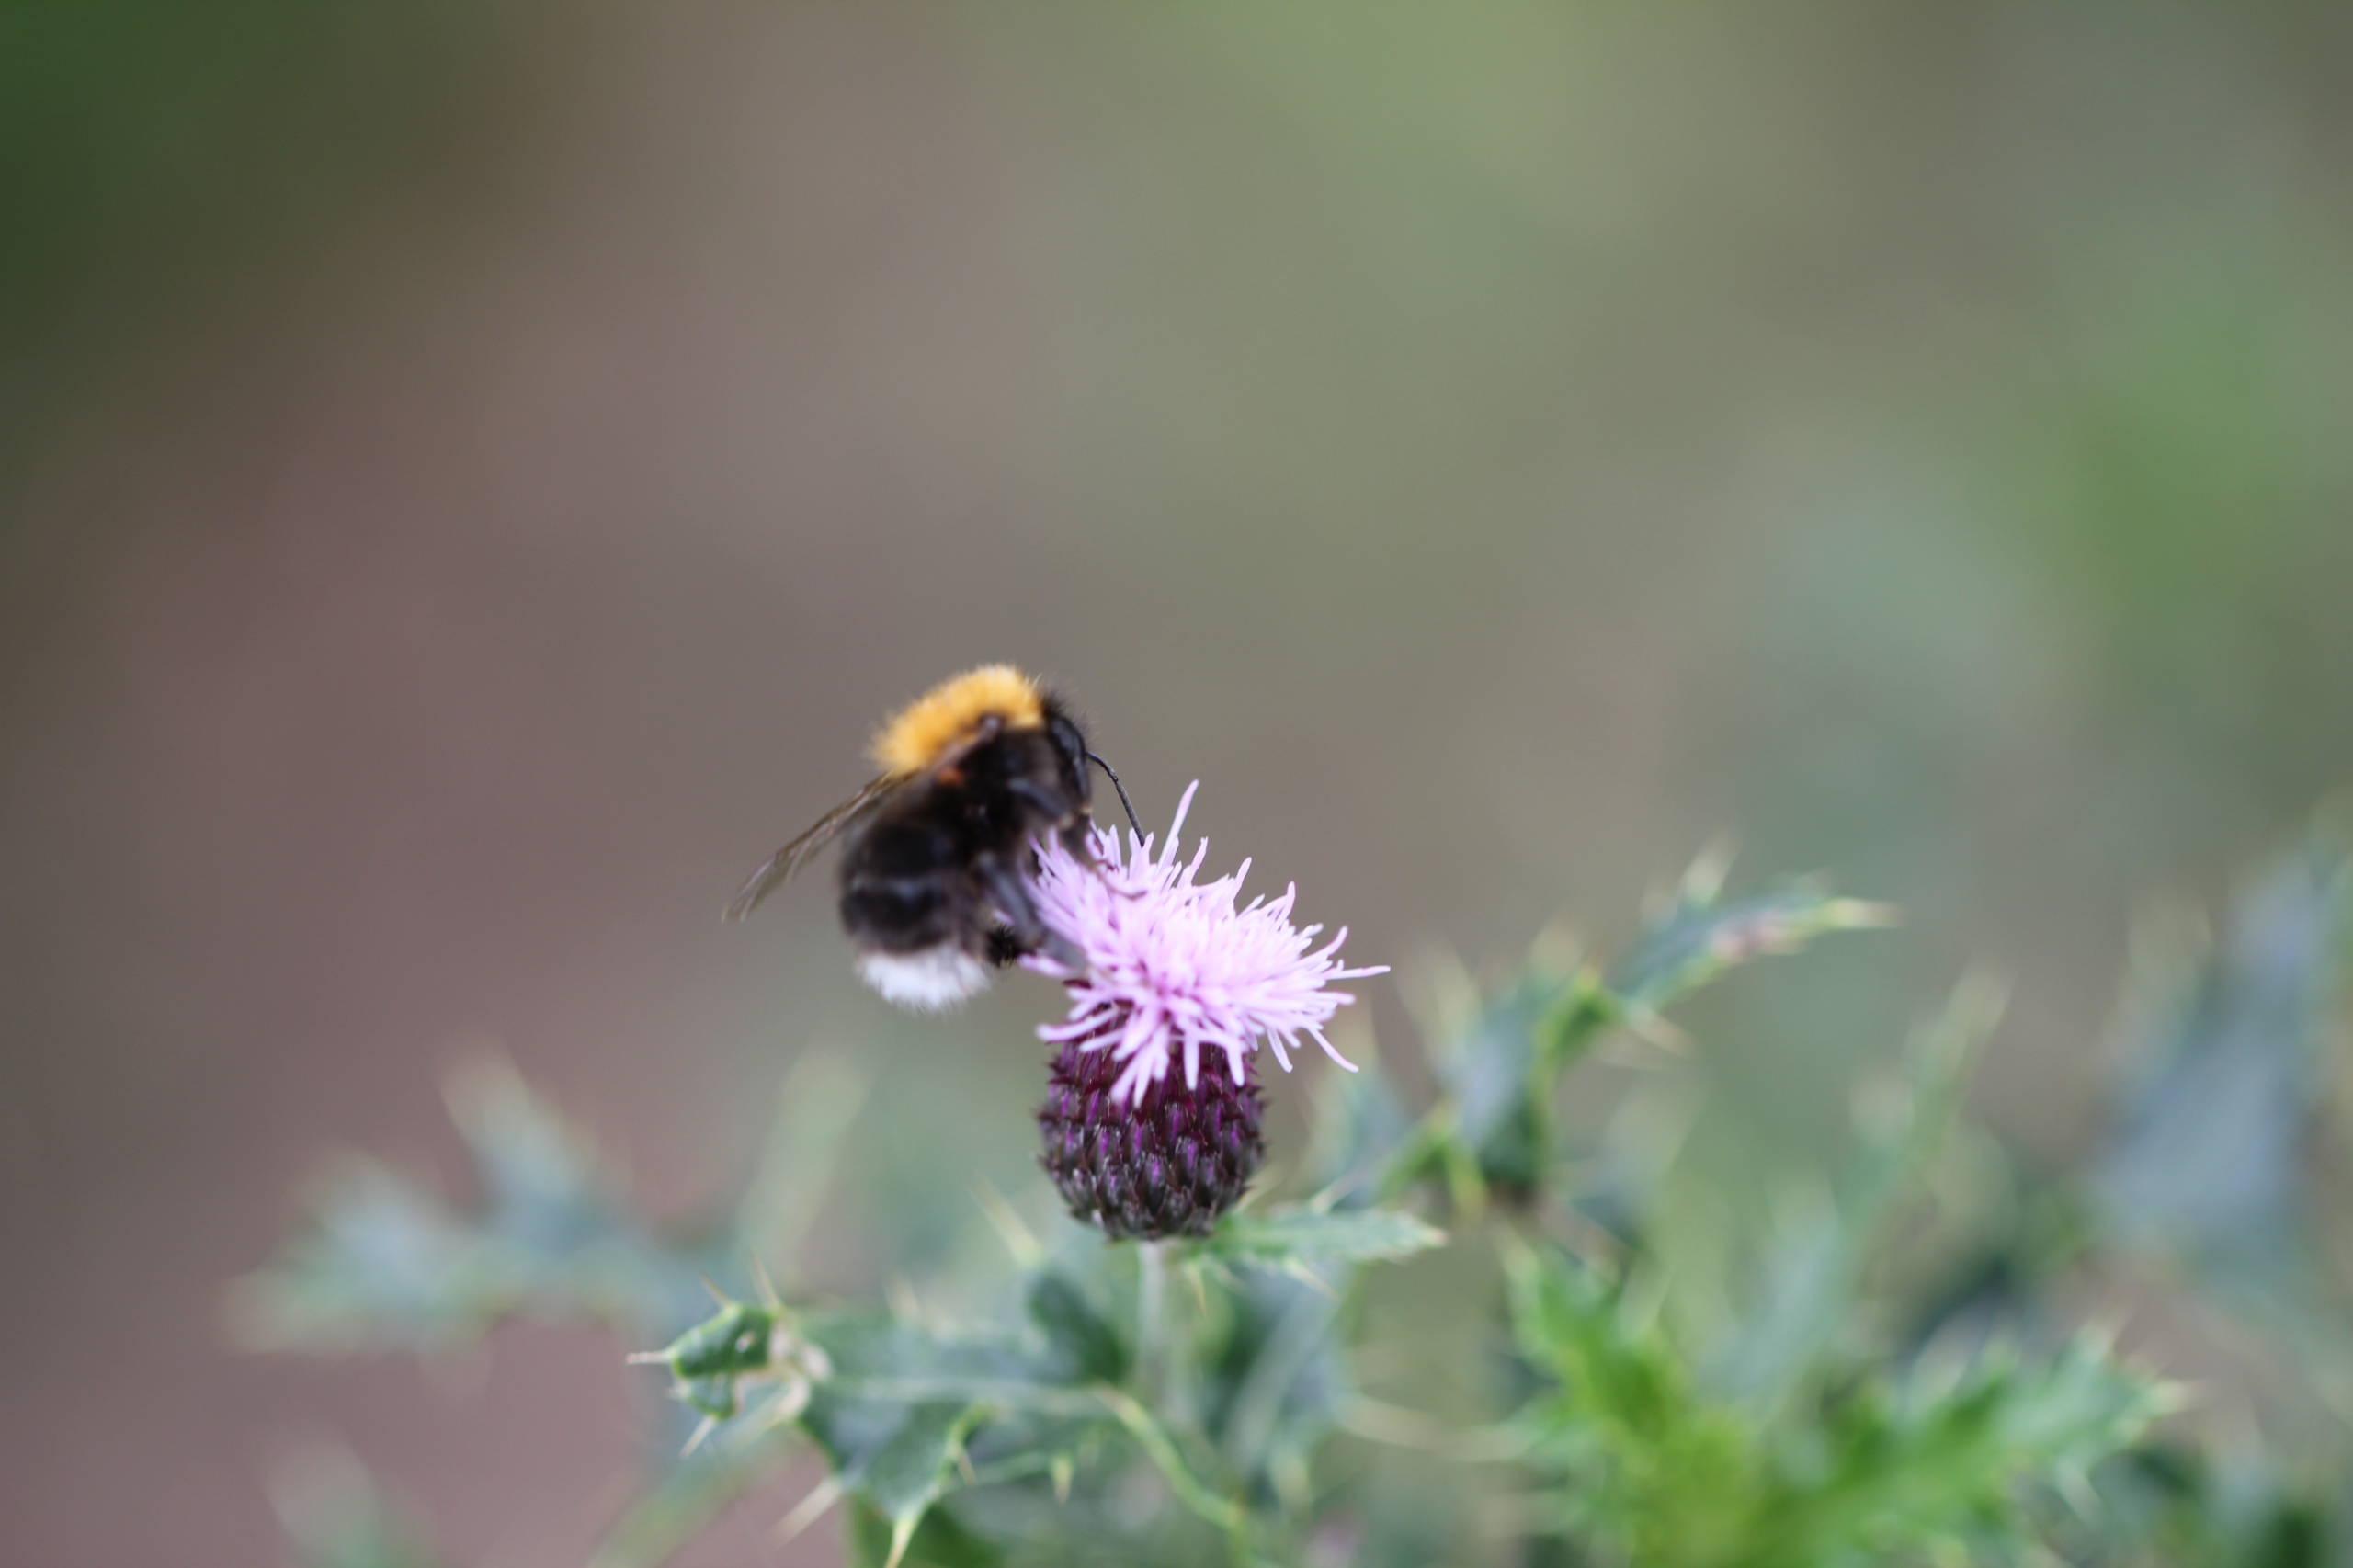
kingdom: Animalia
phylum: Arthropoda
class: Insecta
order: Hymenoptera
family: Apidae
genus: Bombus
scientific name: Bombus hypnorum
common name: Hushumle
